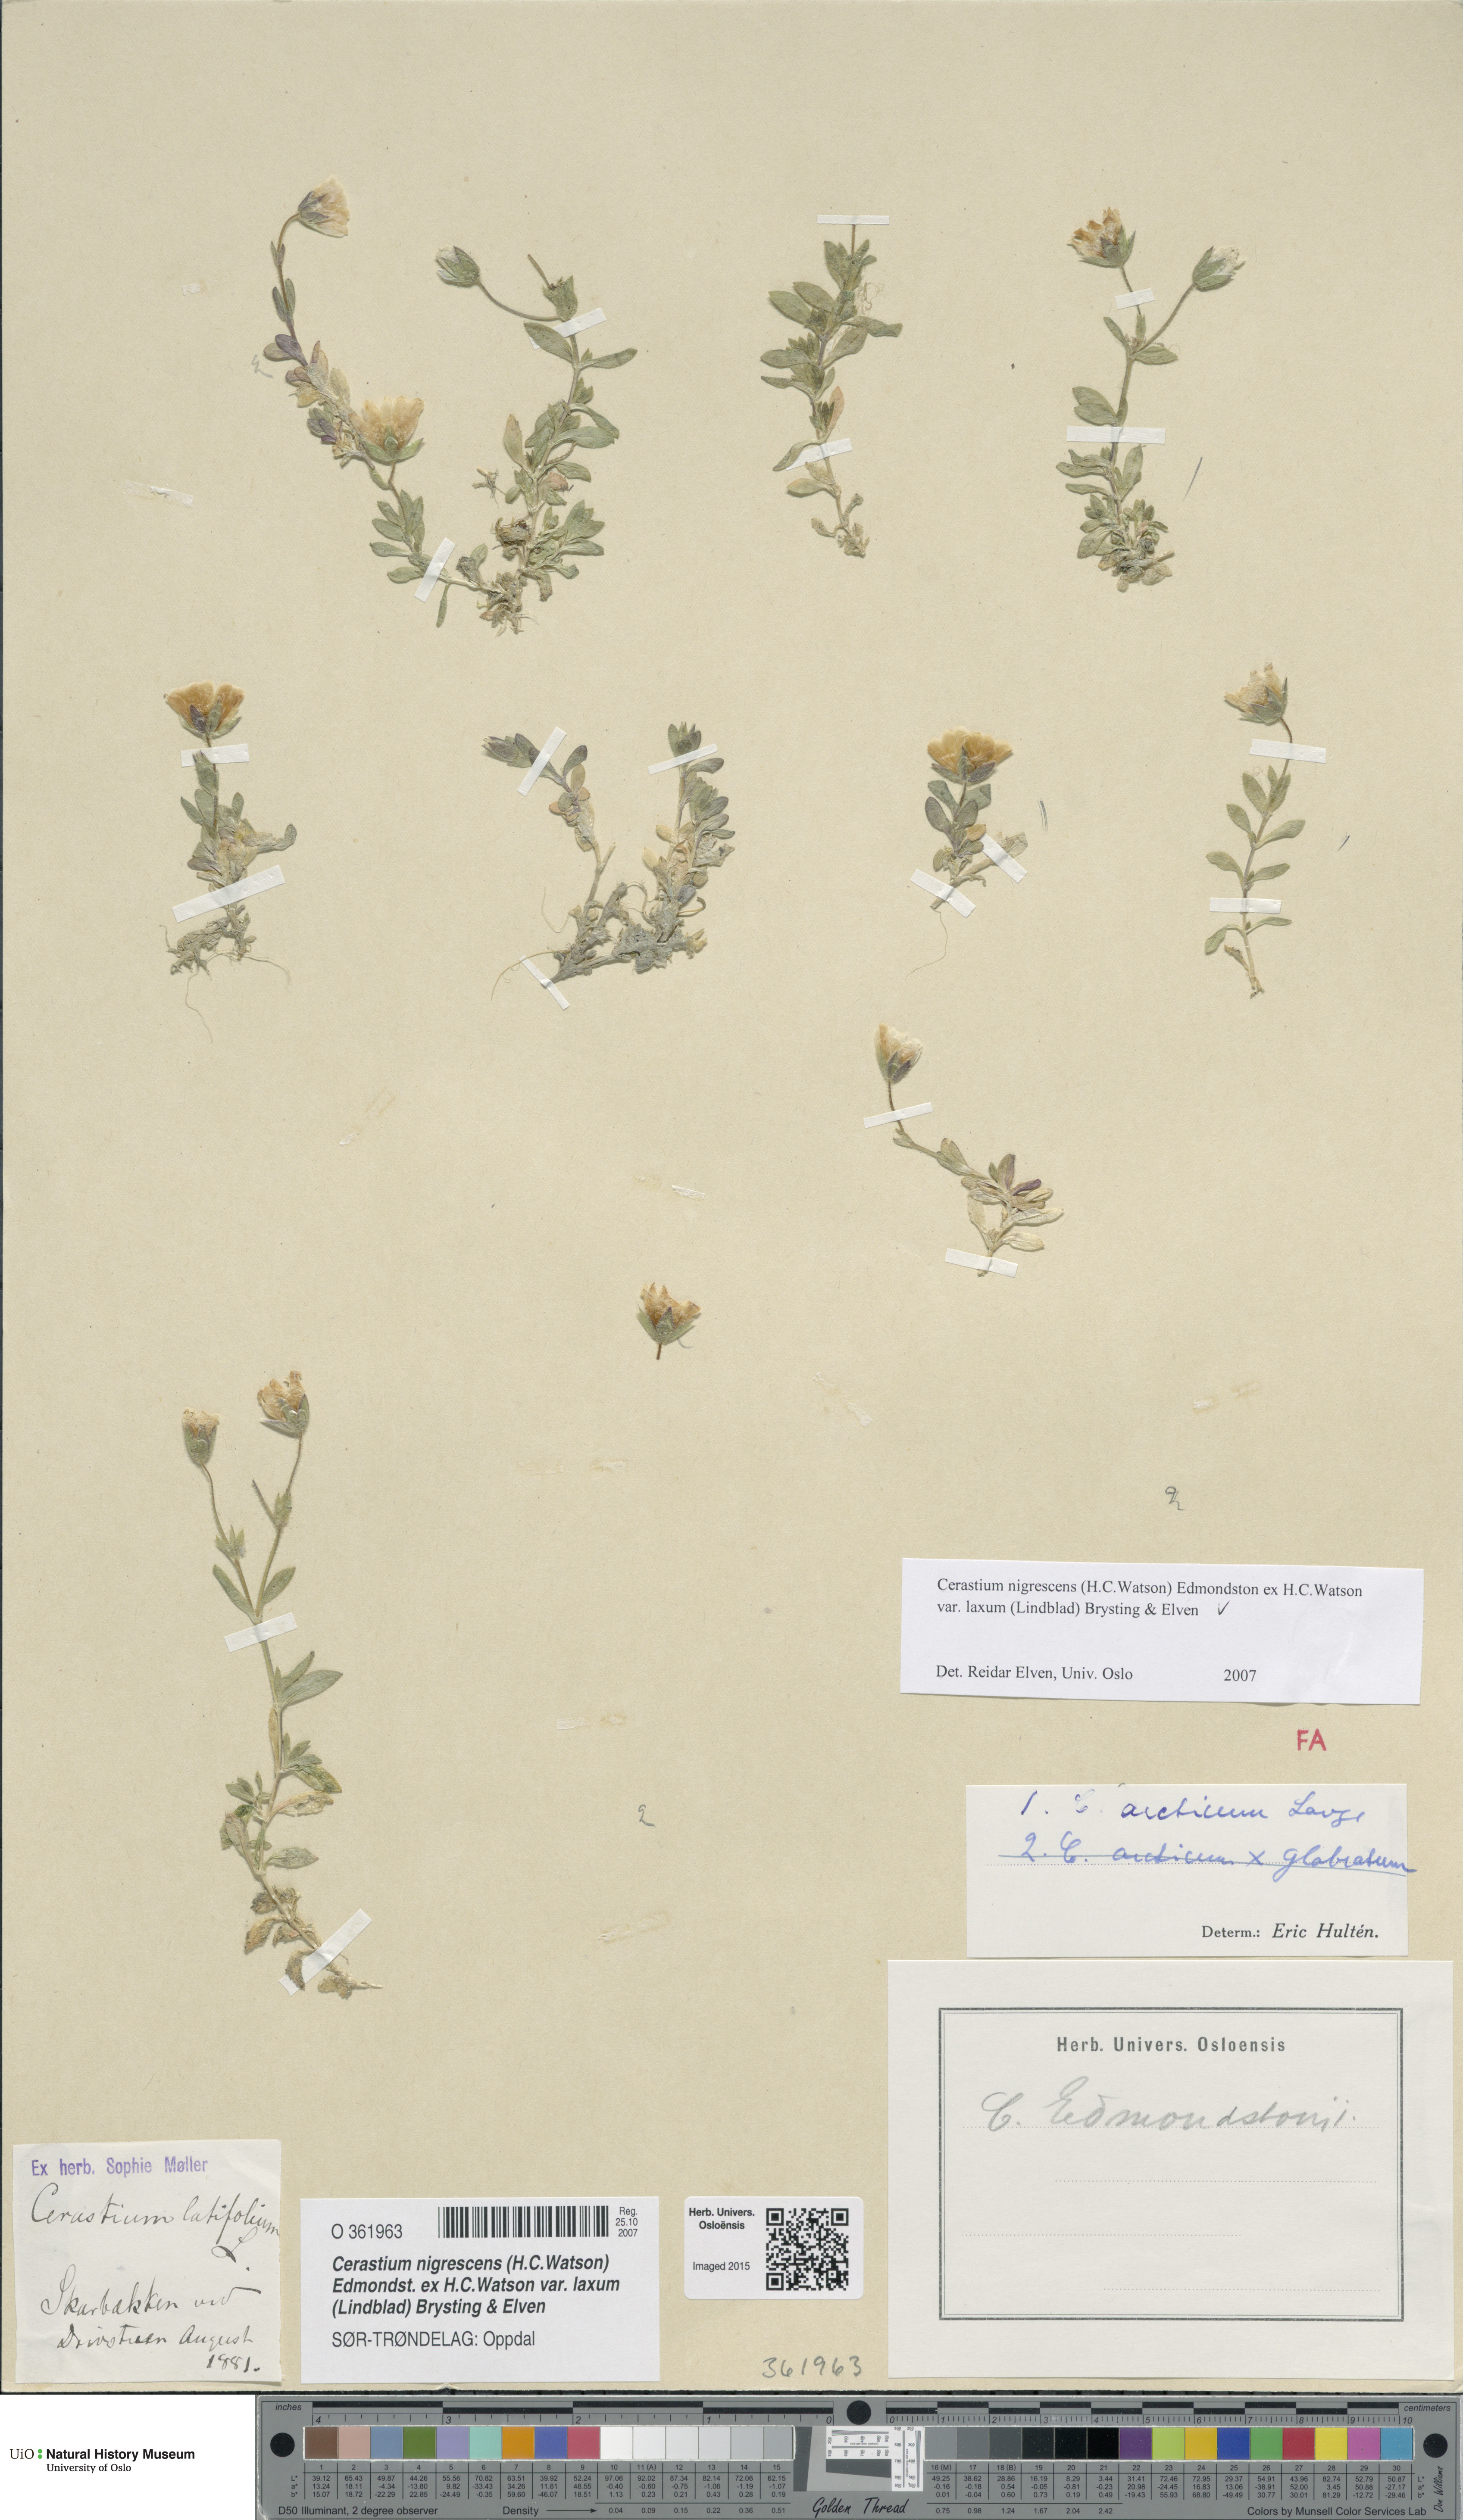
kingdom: Plantae
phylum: Tracheophyta
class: Magnoliopsida
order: Caryophyllales
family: Caryophyllaceae
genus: Cerastium
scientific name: Cerastium nigrescens
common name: Shetland mouse-ear
